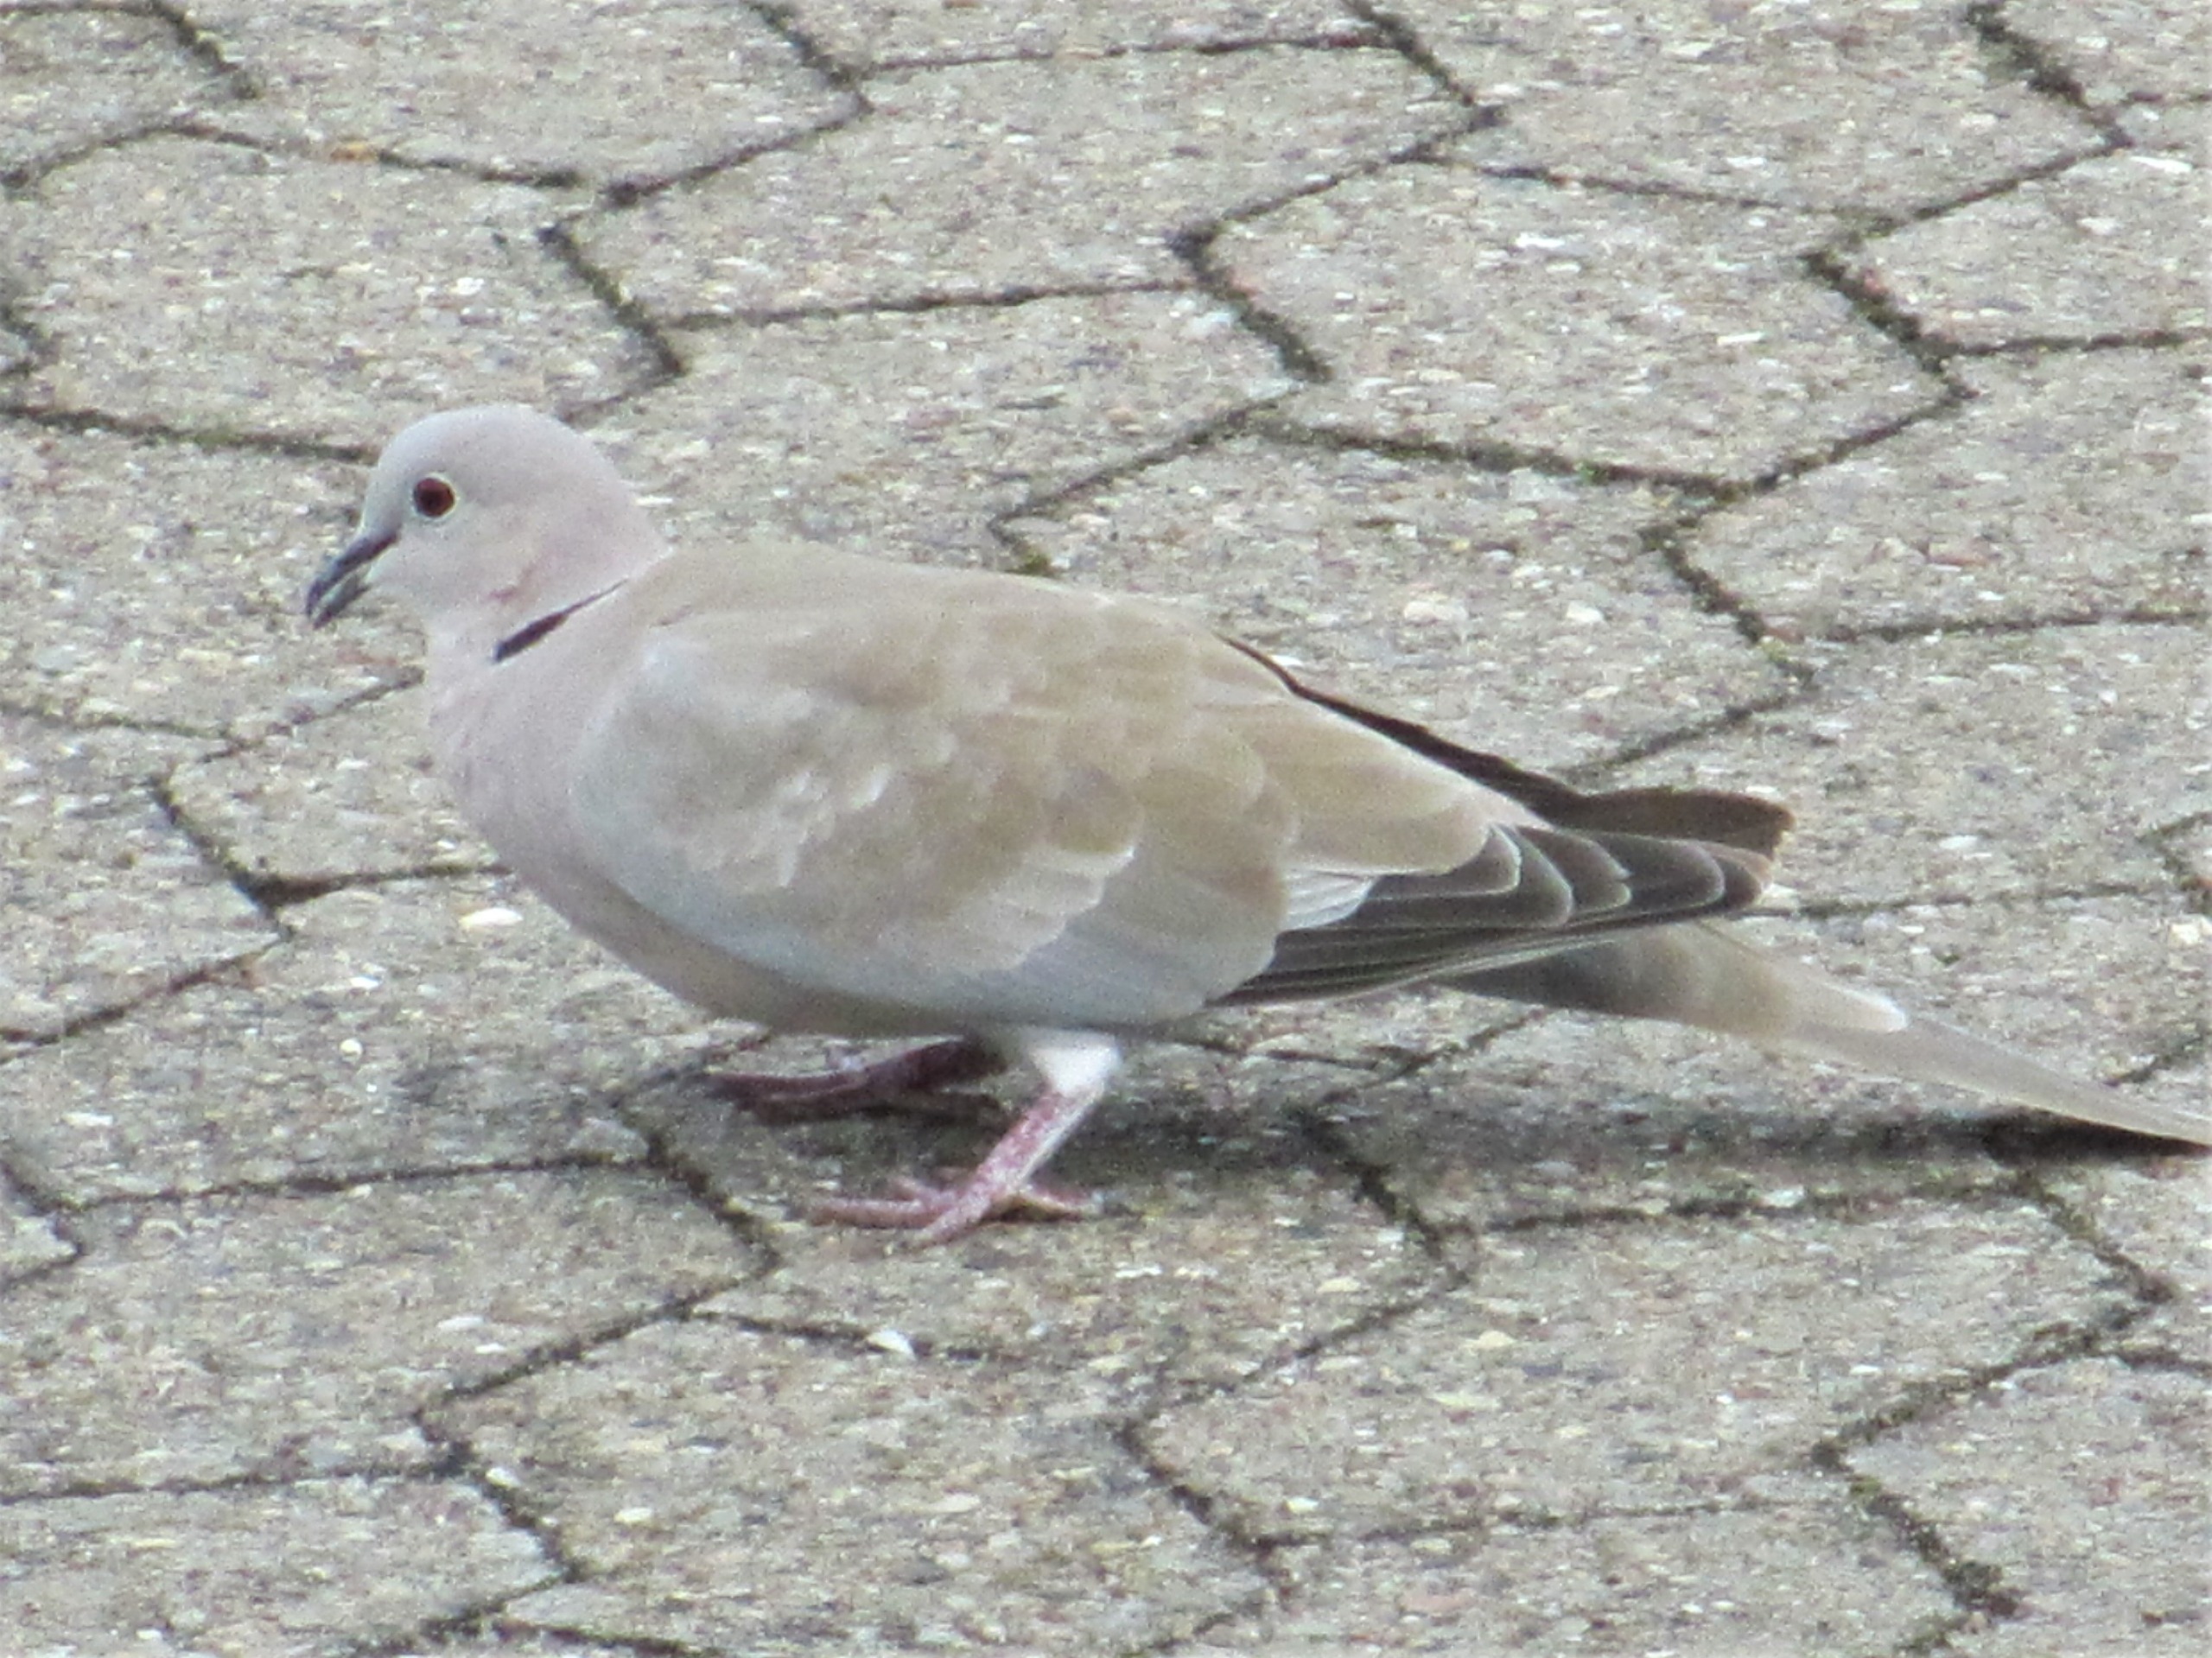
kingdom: Animalia
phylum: Chordata
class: Aves
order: Columbiformes
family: Columbidae
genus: Streptopelia
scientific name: Streptopelia decaocto
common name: Tyrkerdue
